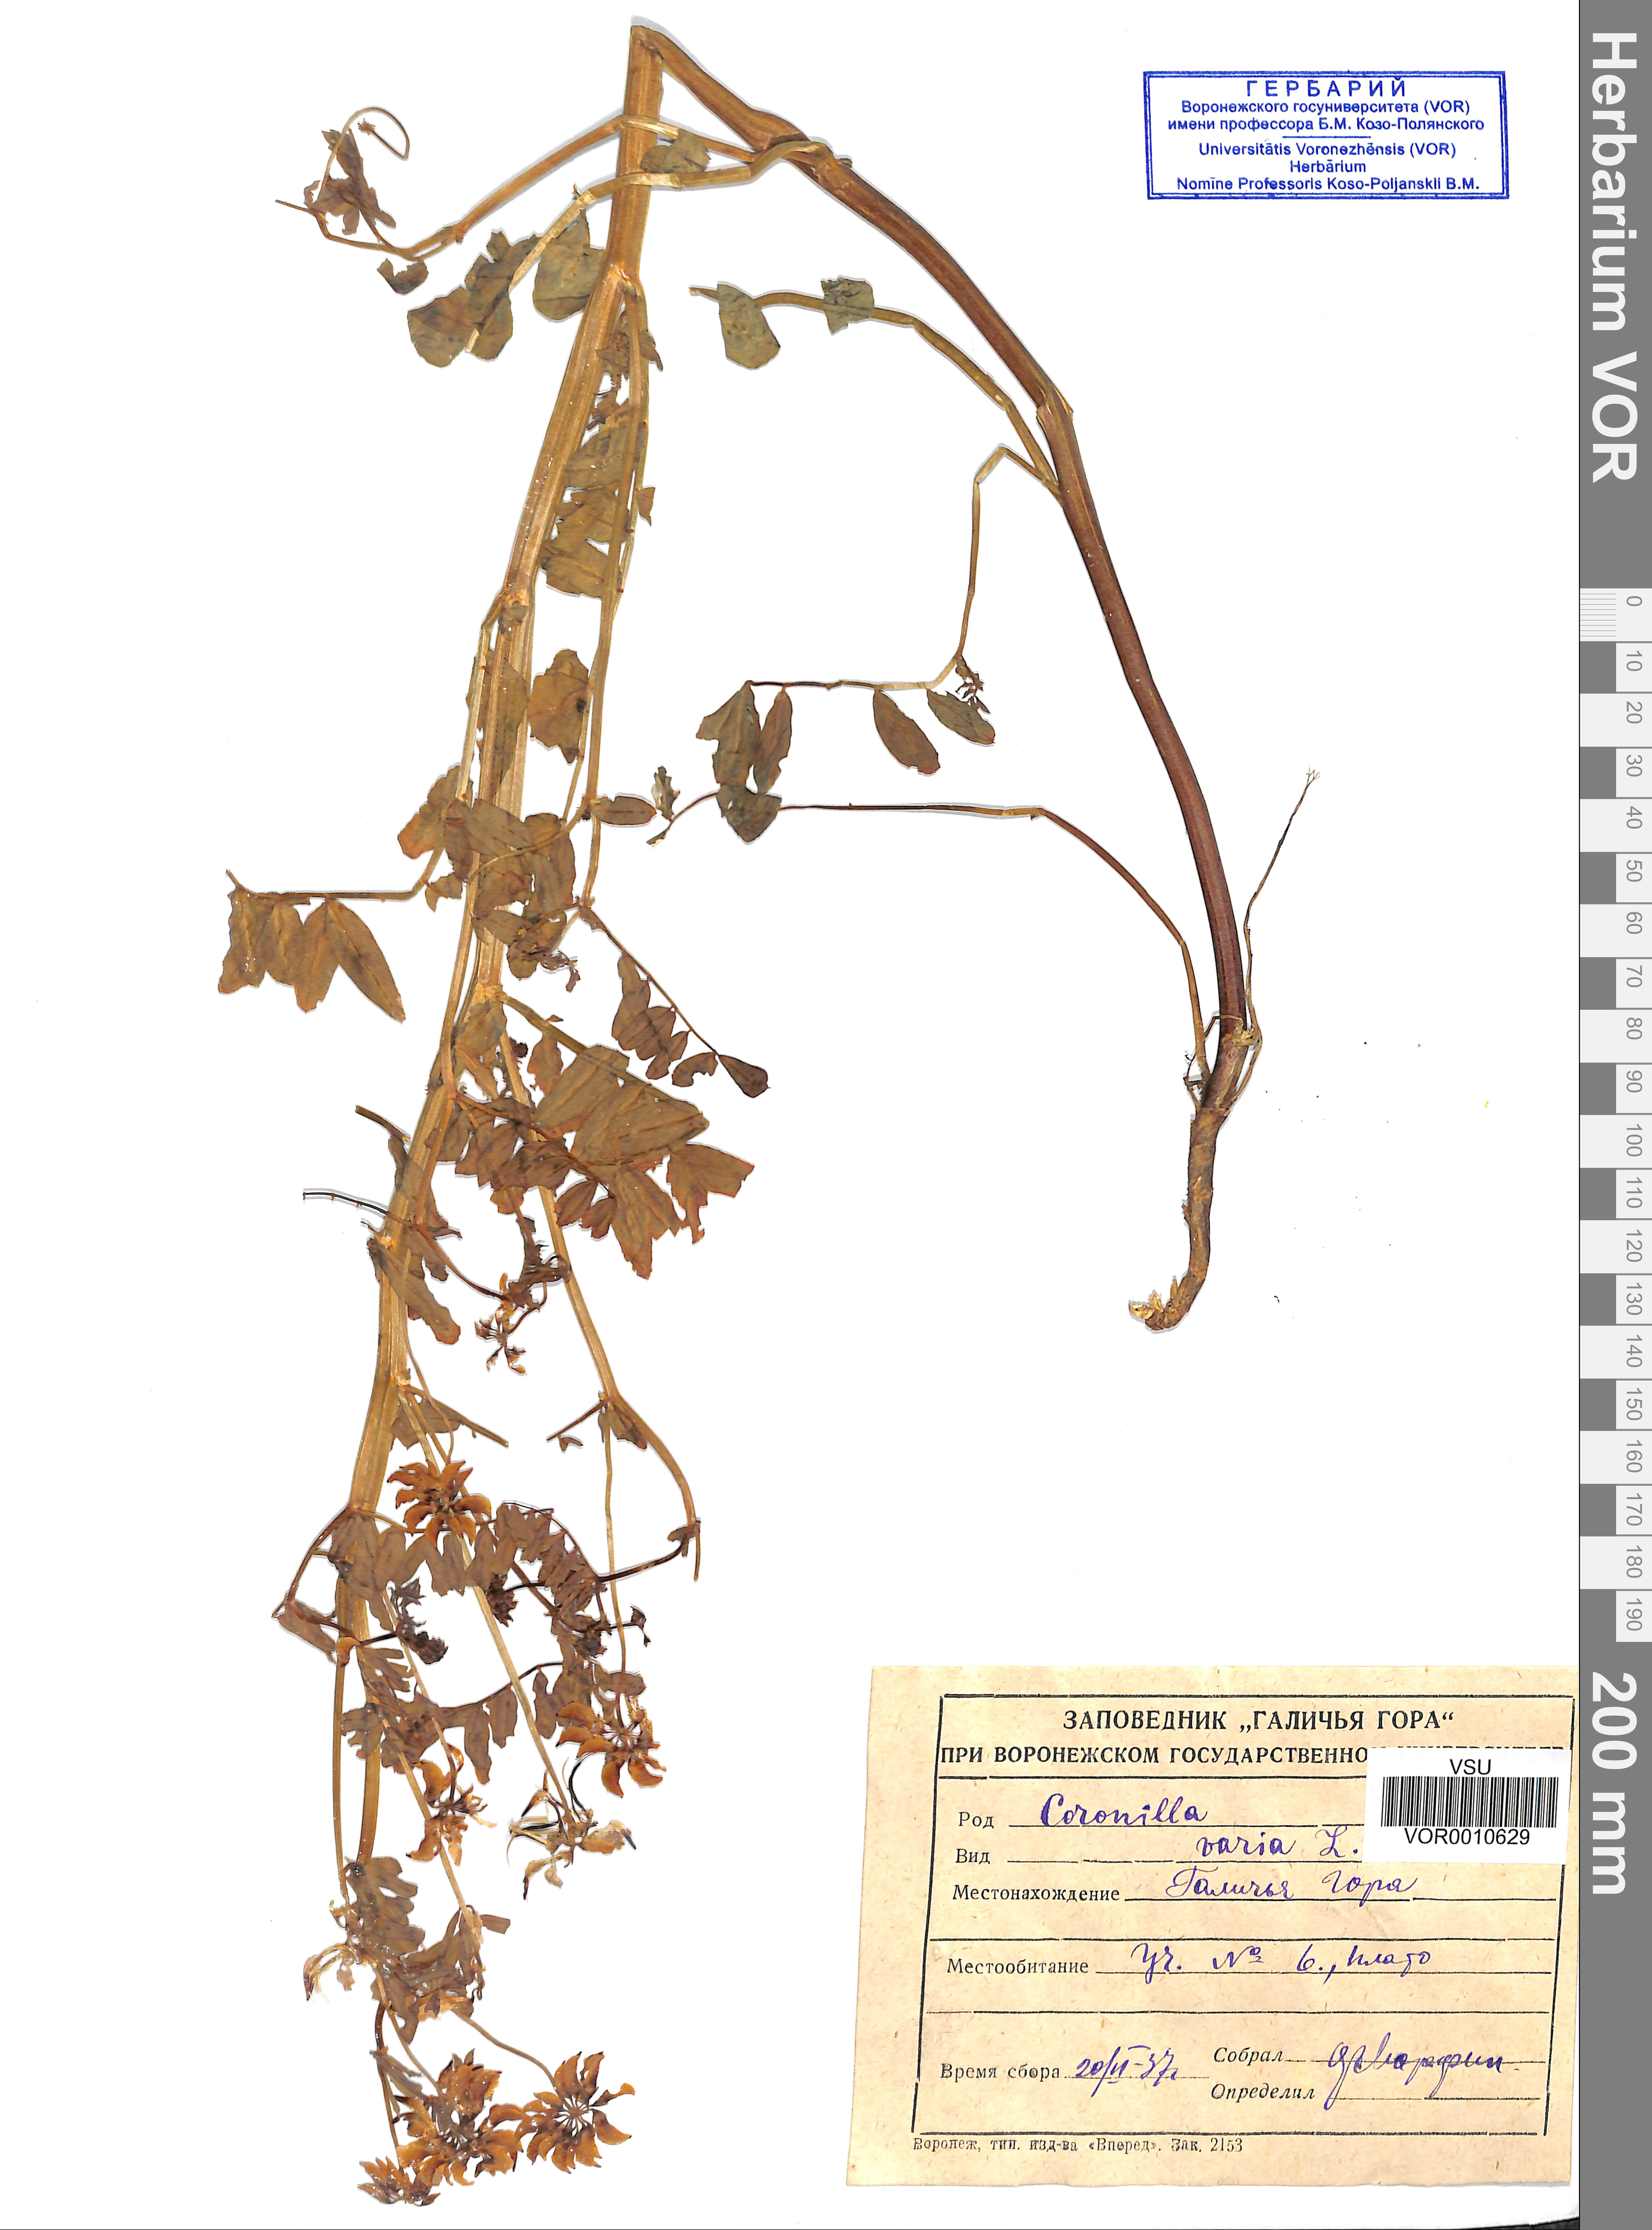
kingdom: Plantae
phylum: Tracheophyta
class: Magnoliopsida
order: Fabales
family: Fabaceae
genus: Coronilla
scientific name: Coronilla varia
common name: Crownvetch
